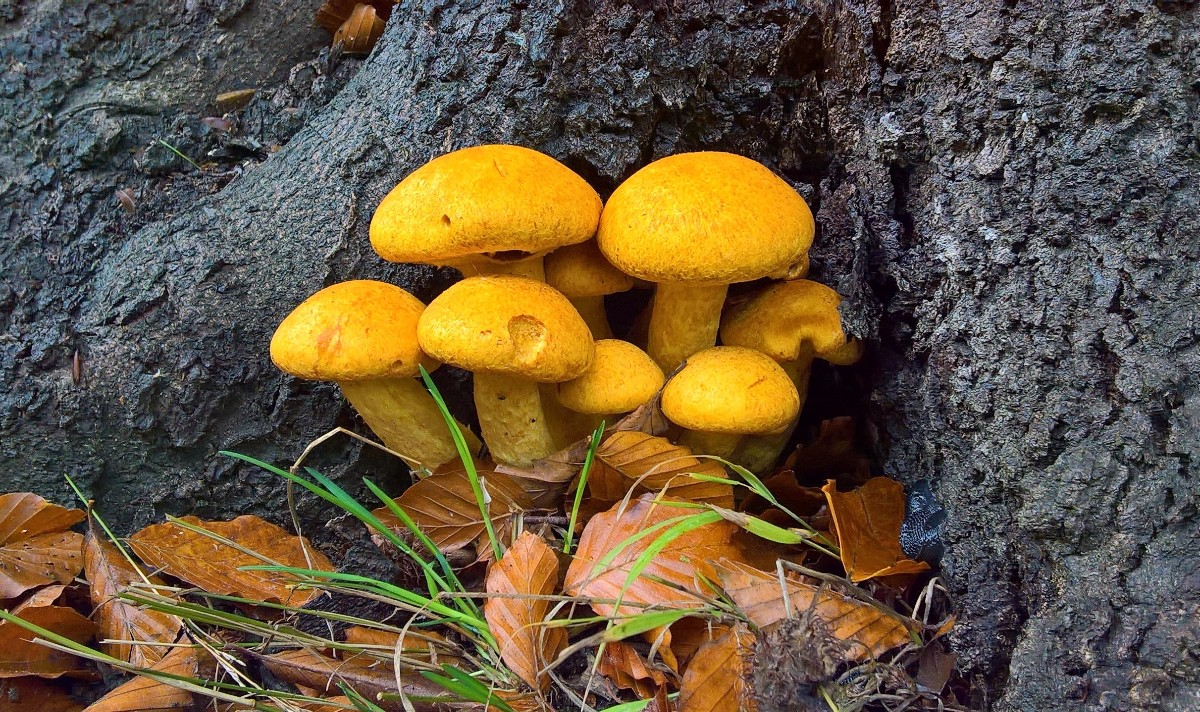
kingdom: Fungi
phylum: Basidiomycota
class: Agaricomycetes
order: Agaricales
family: Hymenogastraceae
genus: Gymnopilus
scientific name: Gymnopilus spectabilis
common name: fibret flammehat
